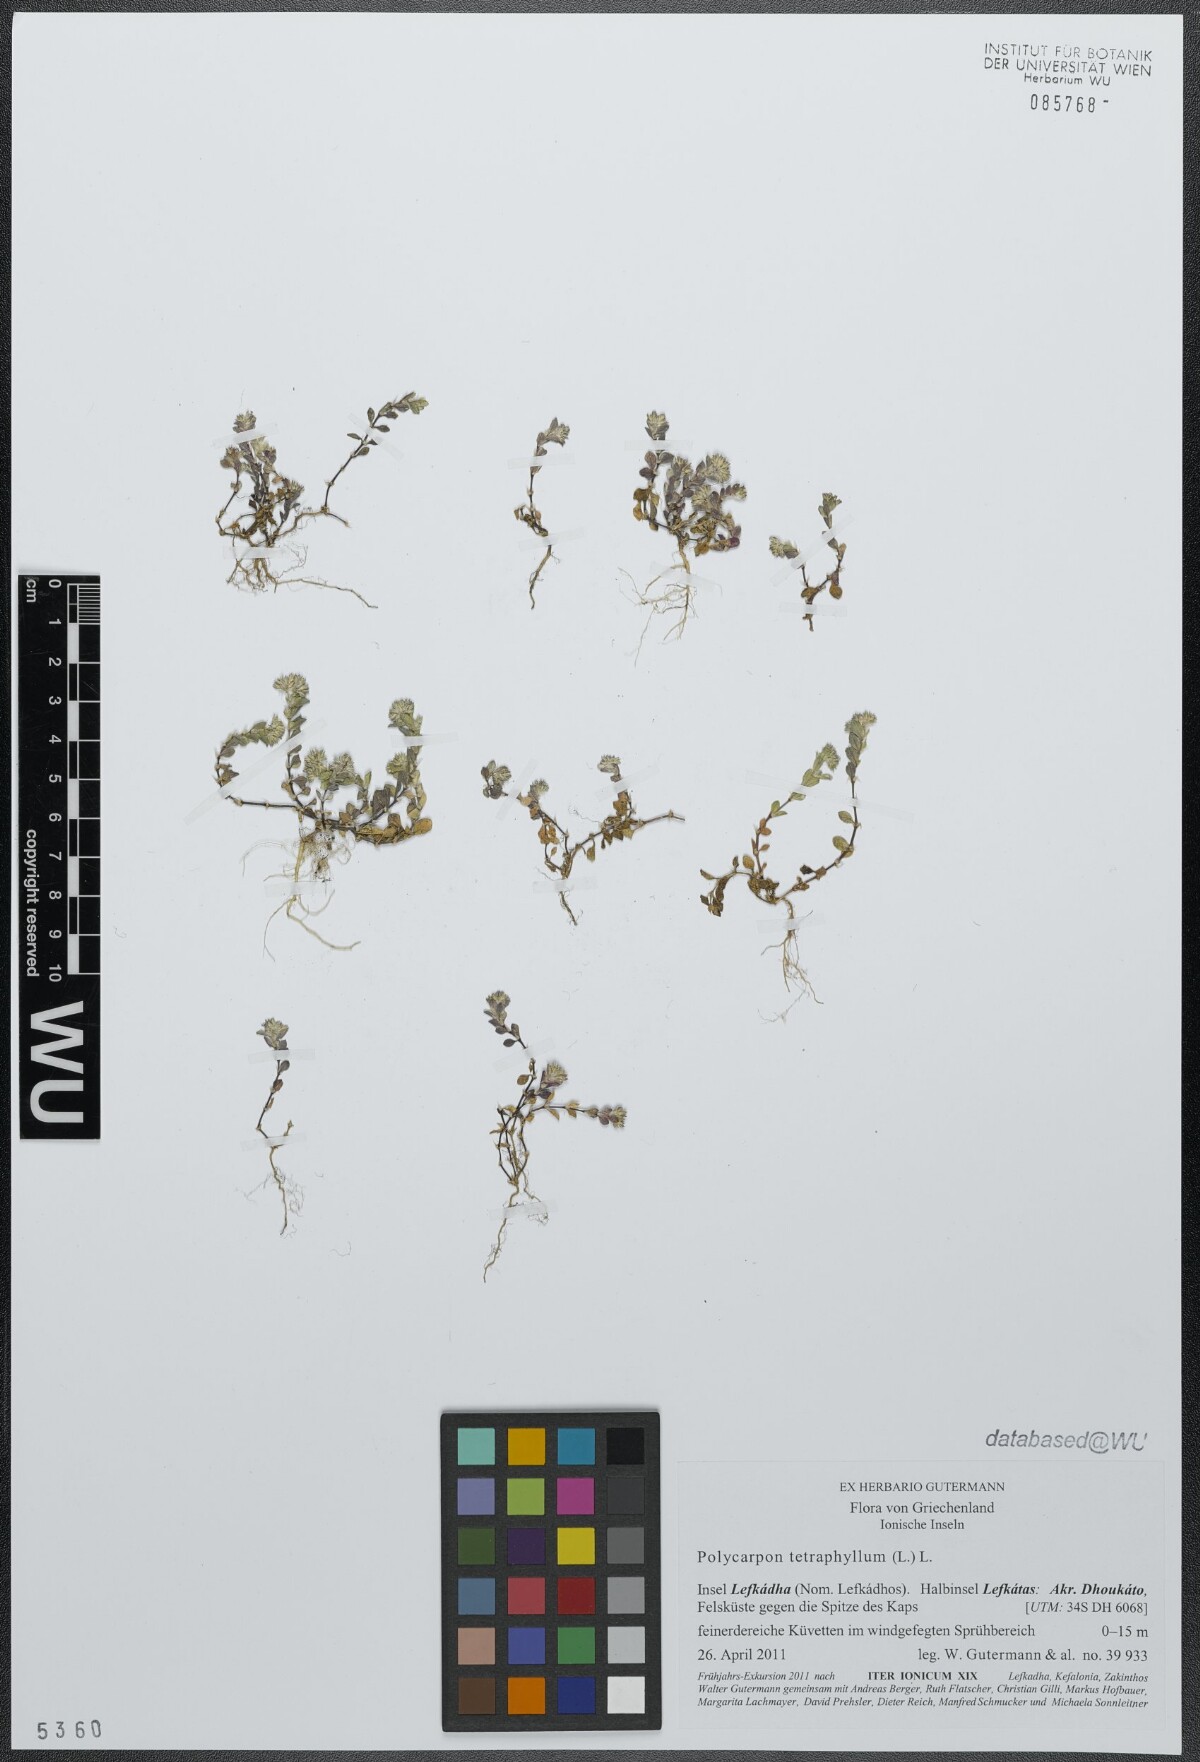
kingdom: Plantae
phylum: Tracheophyta
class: Magnoliopsida
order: Caryophyllales
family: Caryophyllaceae
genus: Polycarpon
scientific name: Polycarpon tetraphyllum
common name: Four-leaved all-seed
